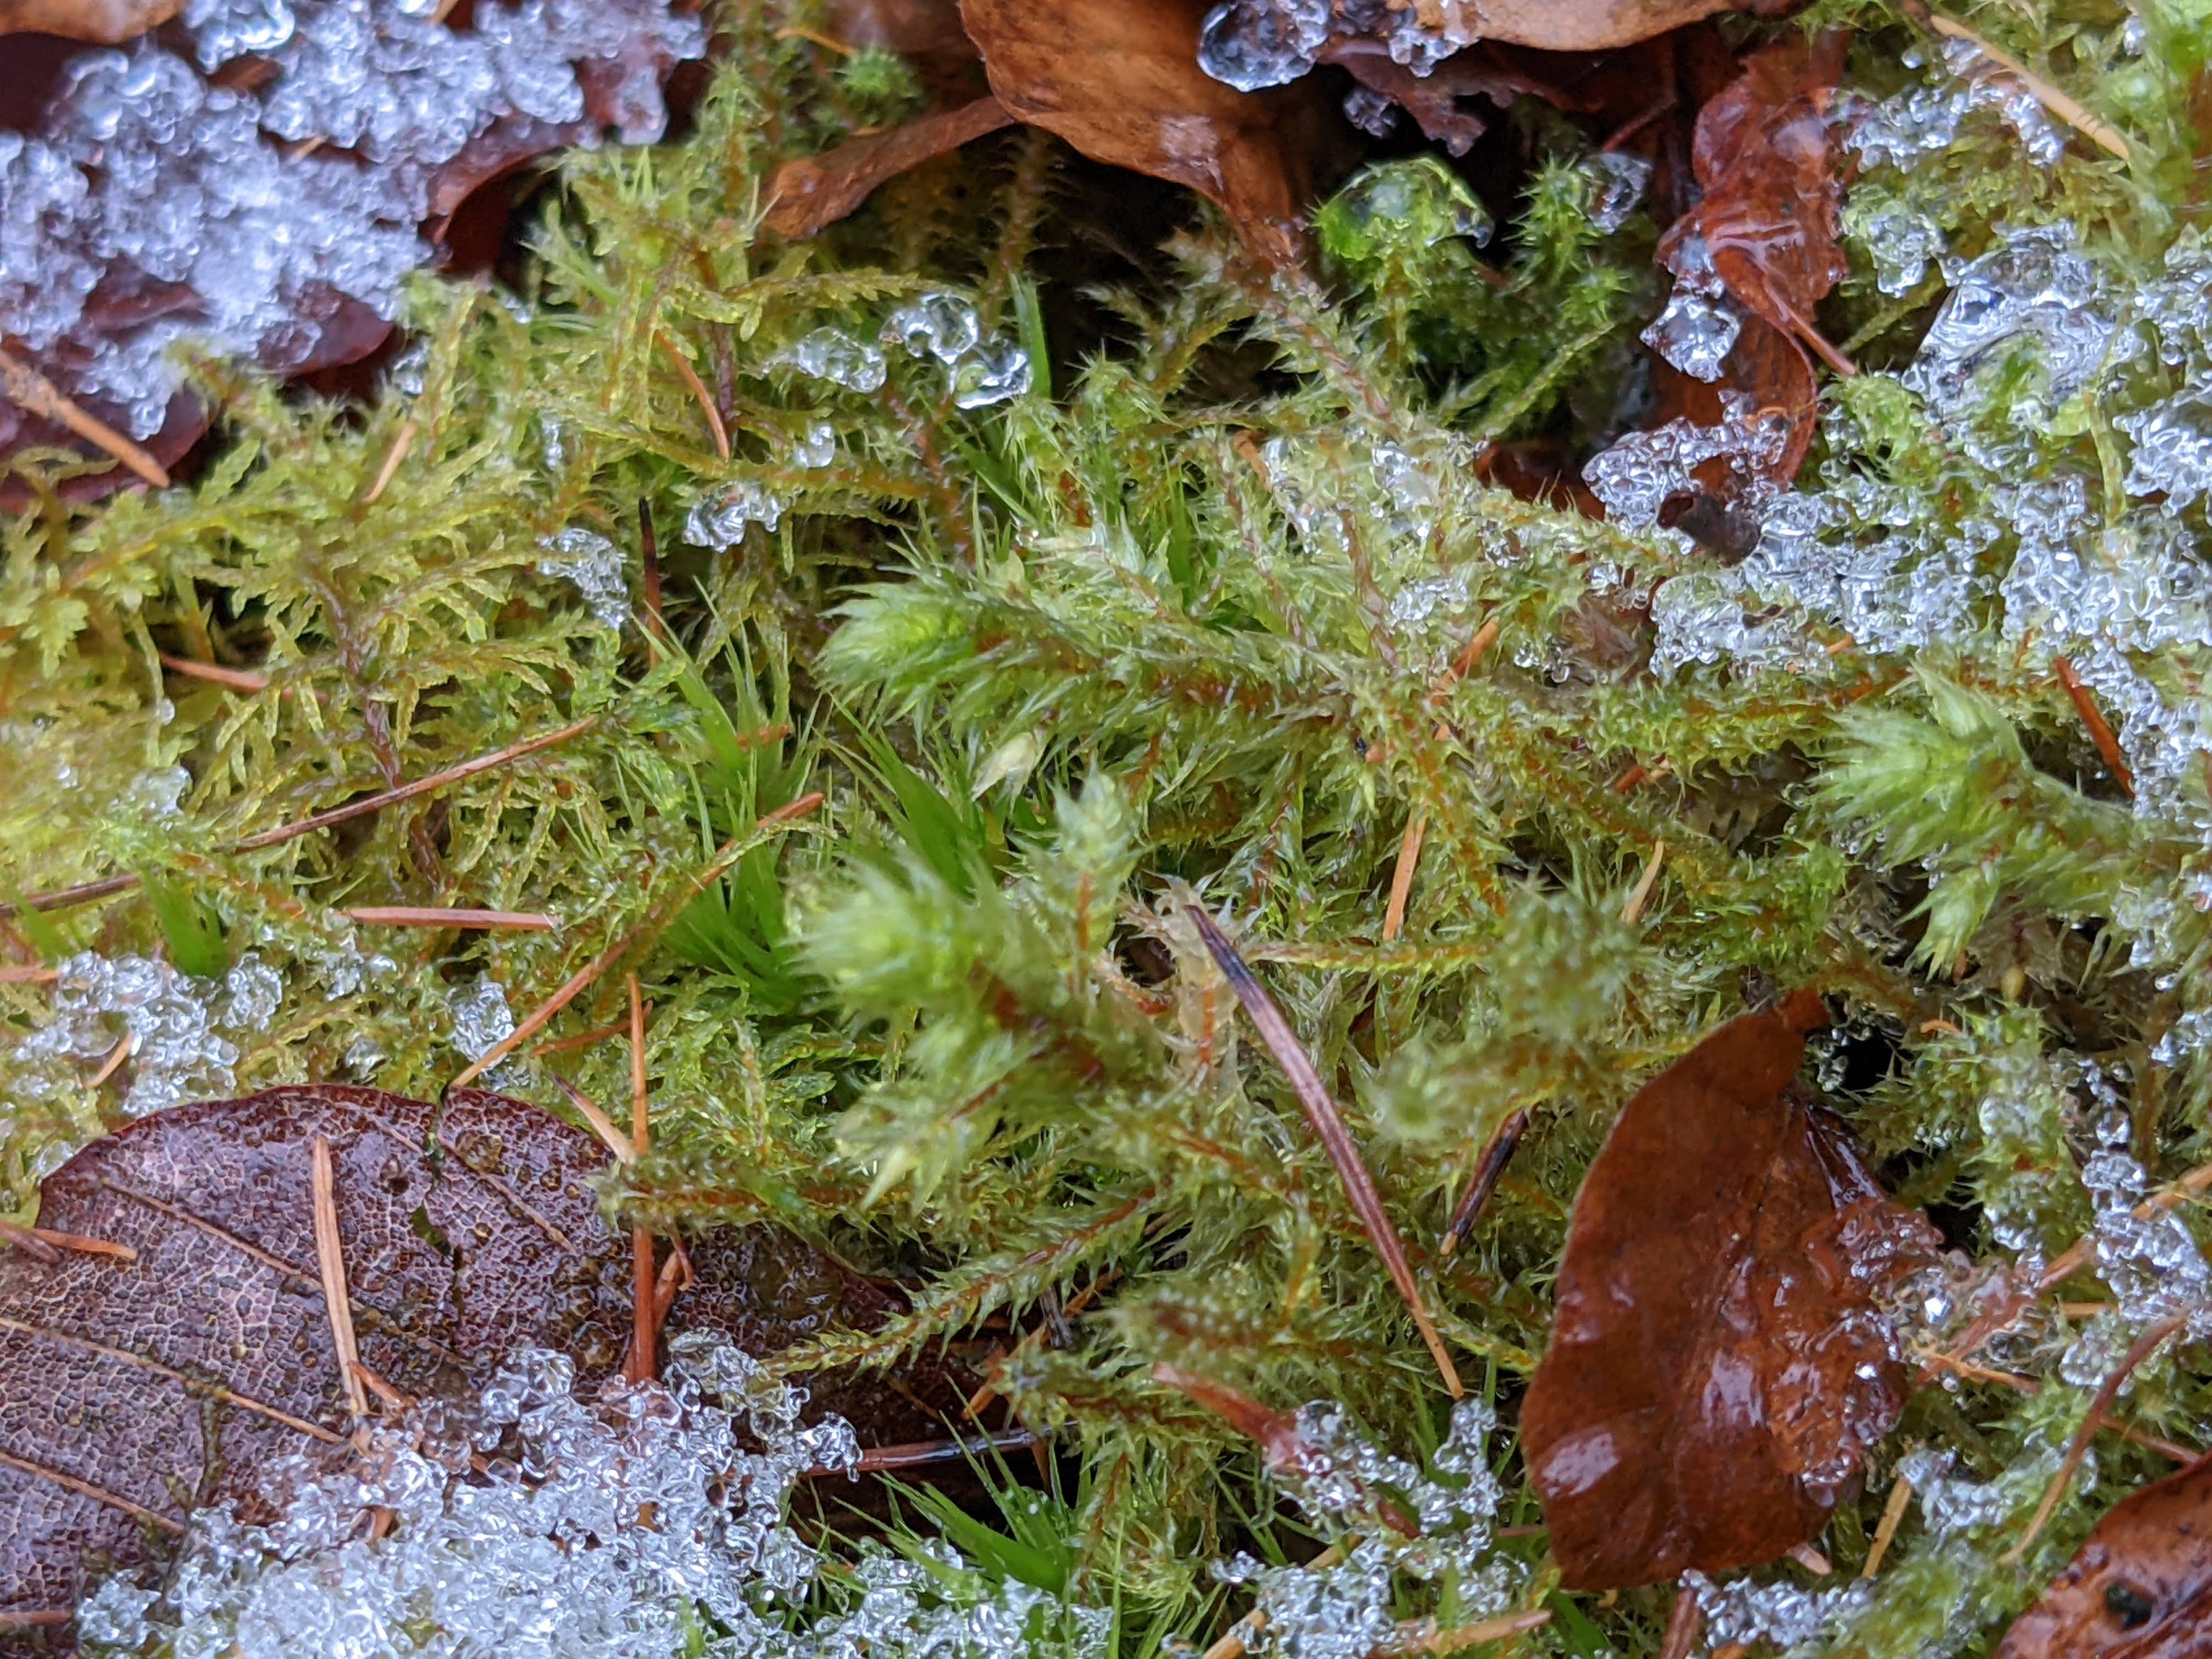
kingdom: Plantae
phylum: Bryophyta
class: Bryopsida
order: Hypnales
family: Hylocomiaceae
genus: Hylocomiadelphus
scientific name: Hylocomiadelphus triquetrus
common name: Stor kransemos
